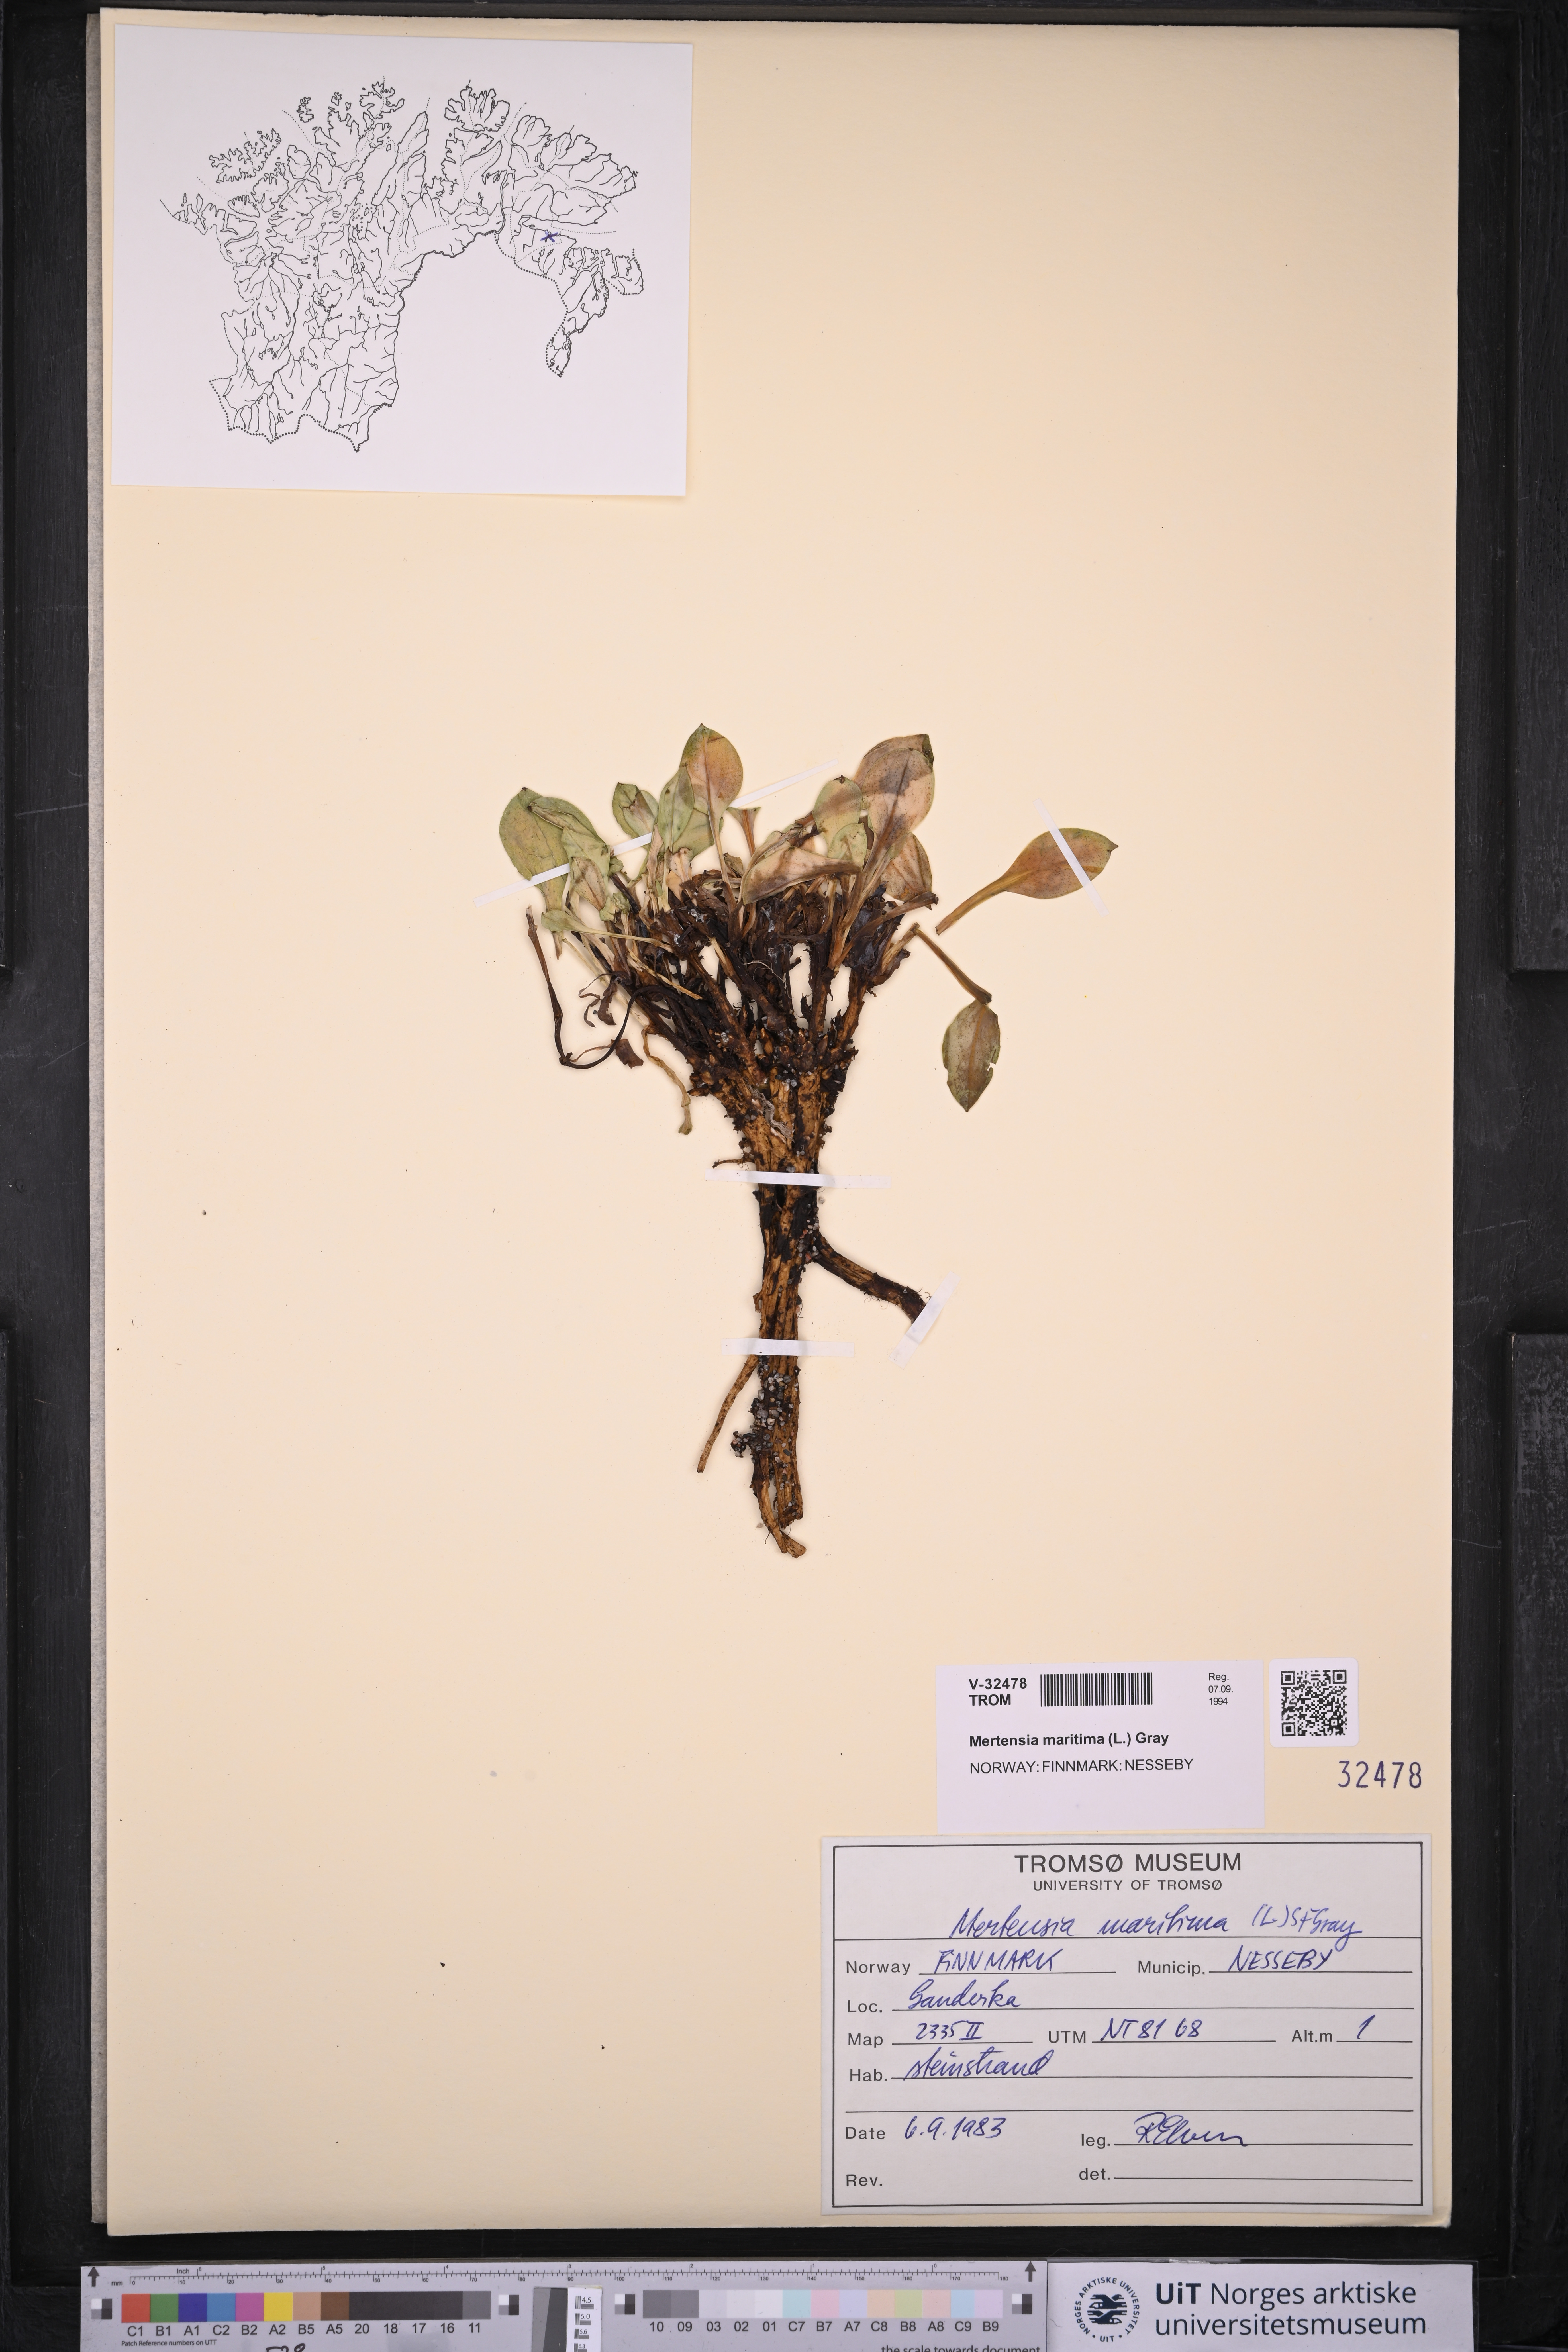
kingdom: Plantae
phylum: Tracheophyta
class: Magnoliopsida
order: Boraginales
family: Boraginaceae
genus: Mertensia
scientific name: Mertensia maritima
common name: Oysterplant
